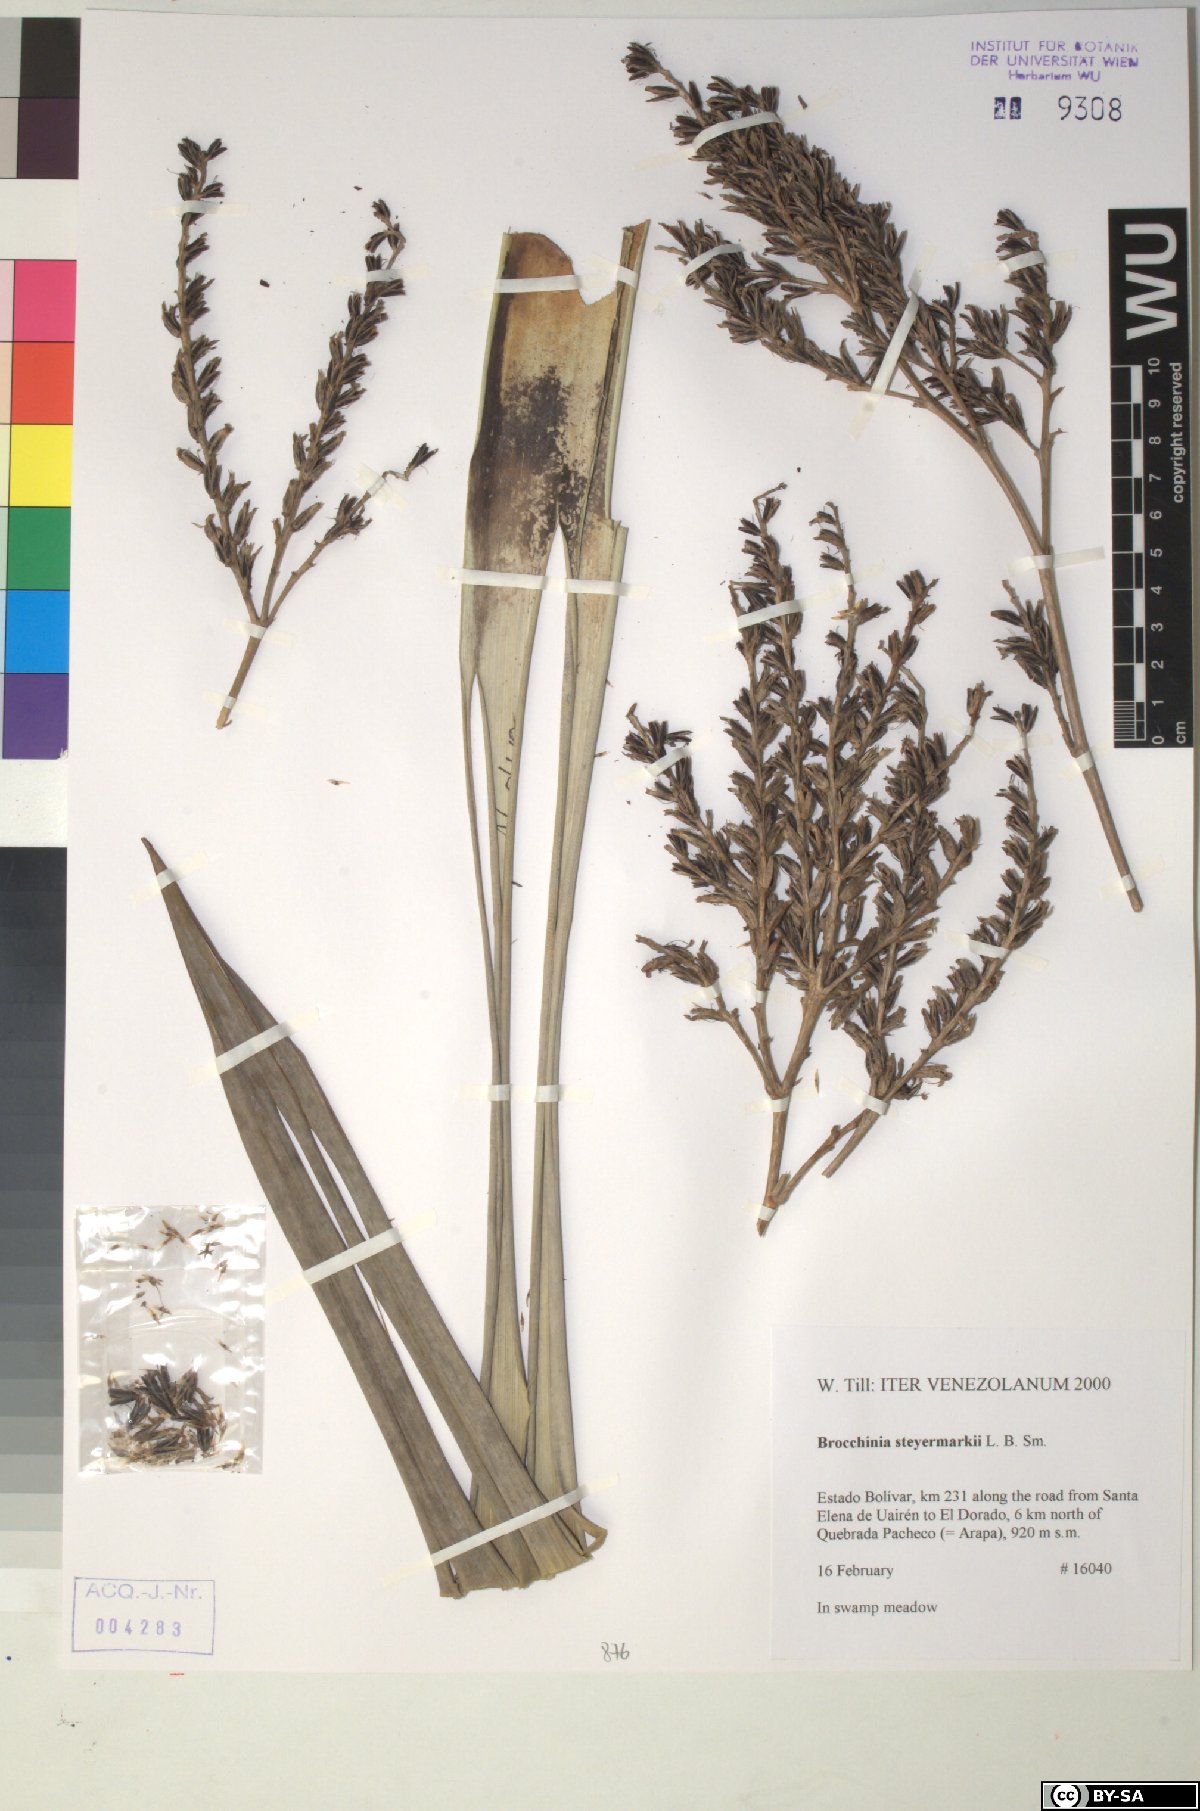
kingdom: Plantae
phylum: Tracheophyta
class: Liliopsida
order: Poales
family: Bromeliaceae
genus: Brocchinia
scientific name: Brocchinia steyermarkii
